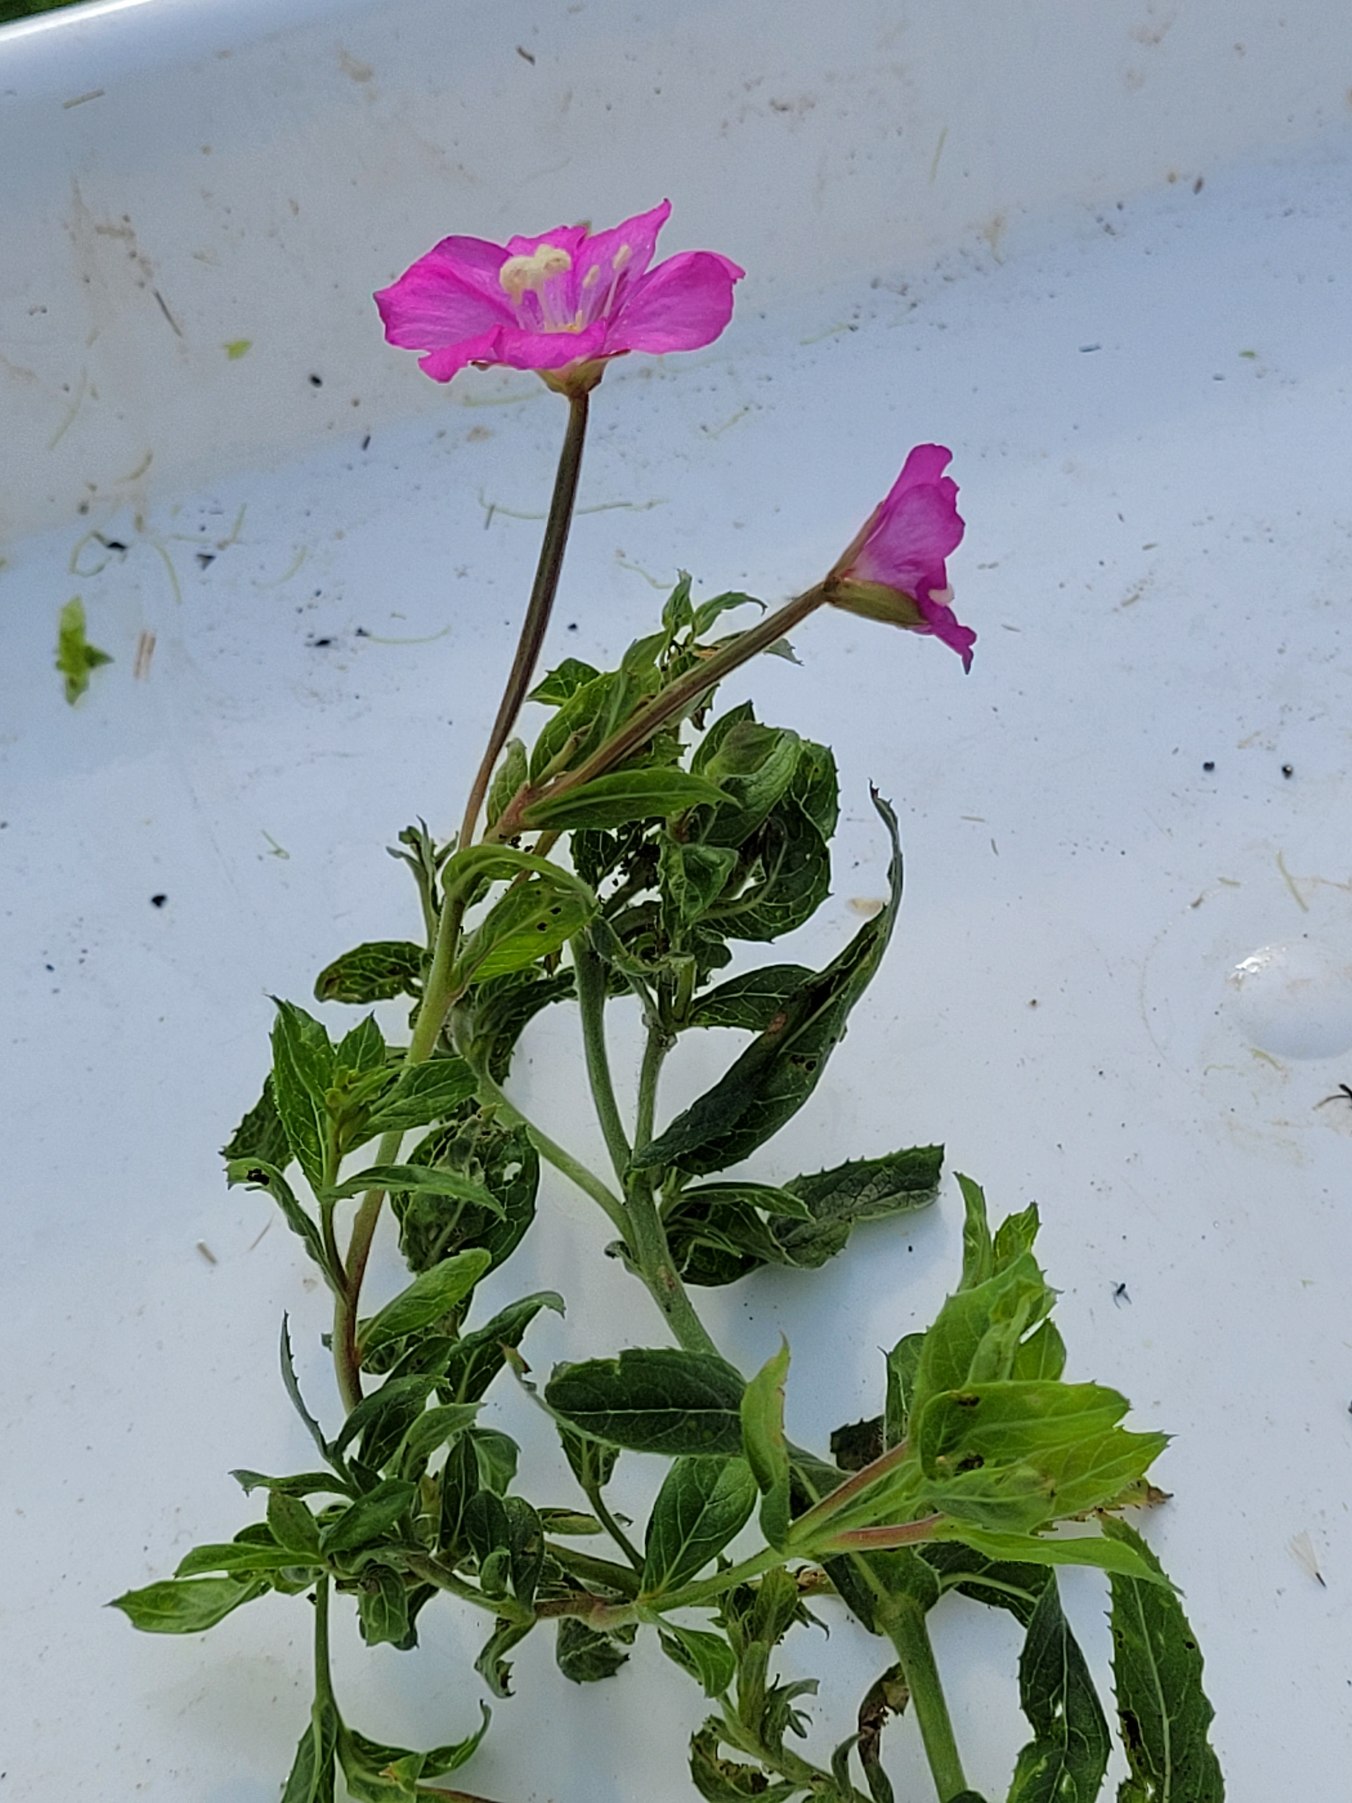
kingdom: Plantae
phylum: Tracheophyta
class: Magnoliopsida
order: Myrtales
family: Onagraceae
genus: Epilobium
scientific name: Epilobium hirsutum
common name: Lådden dueurt
